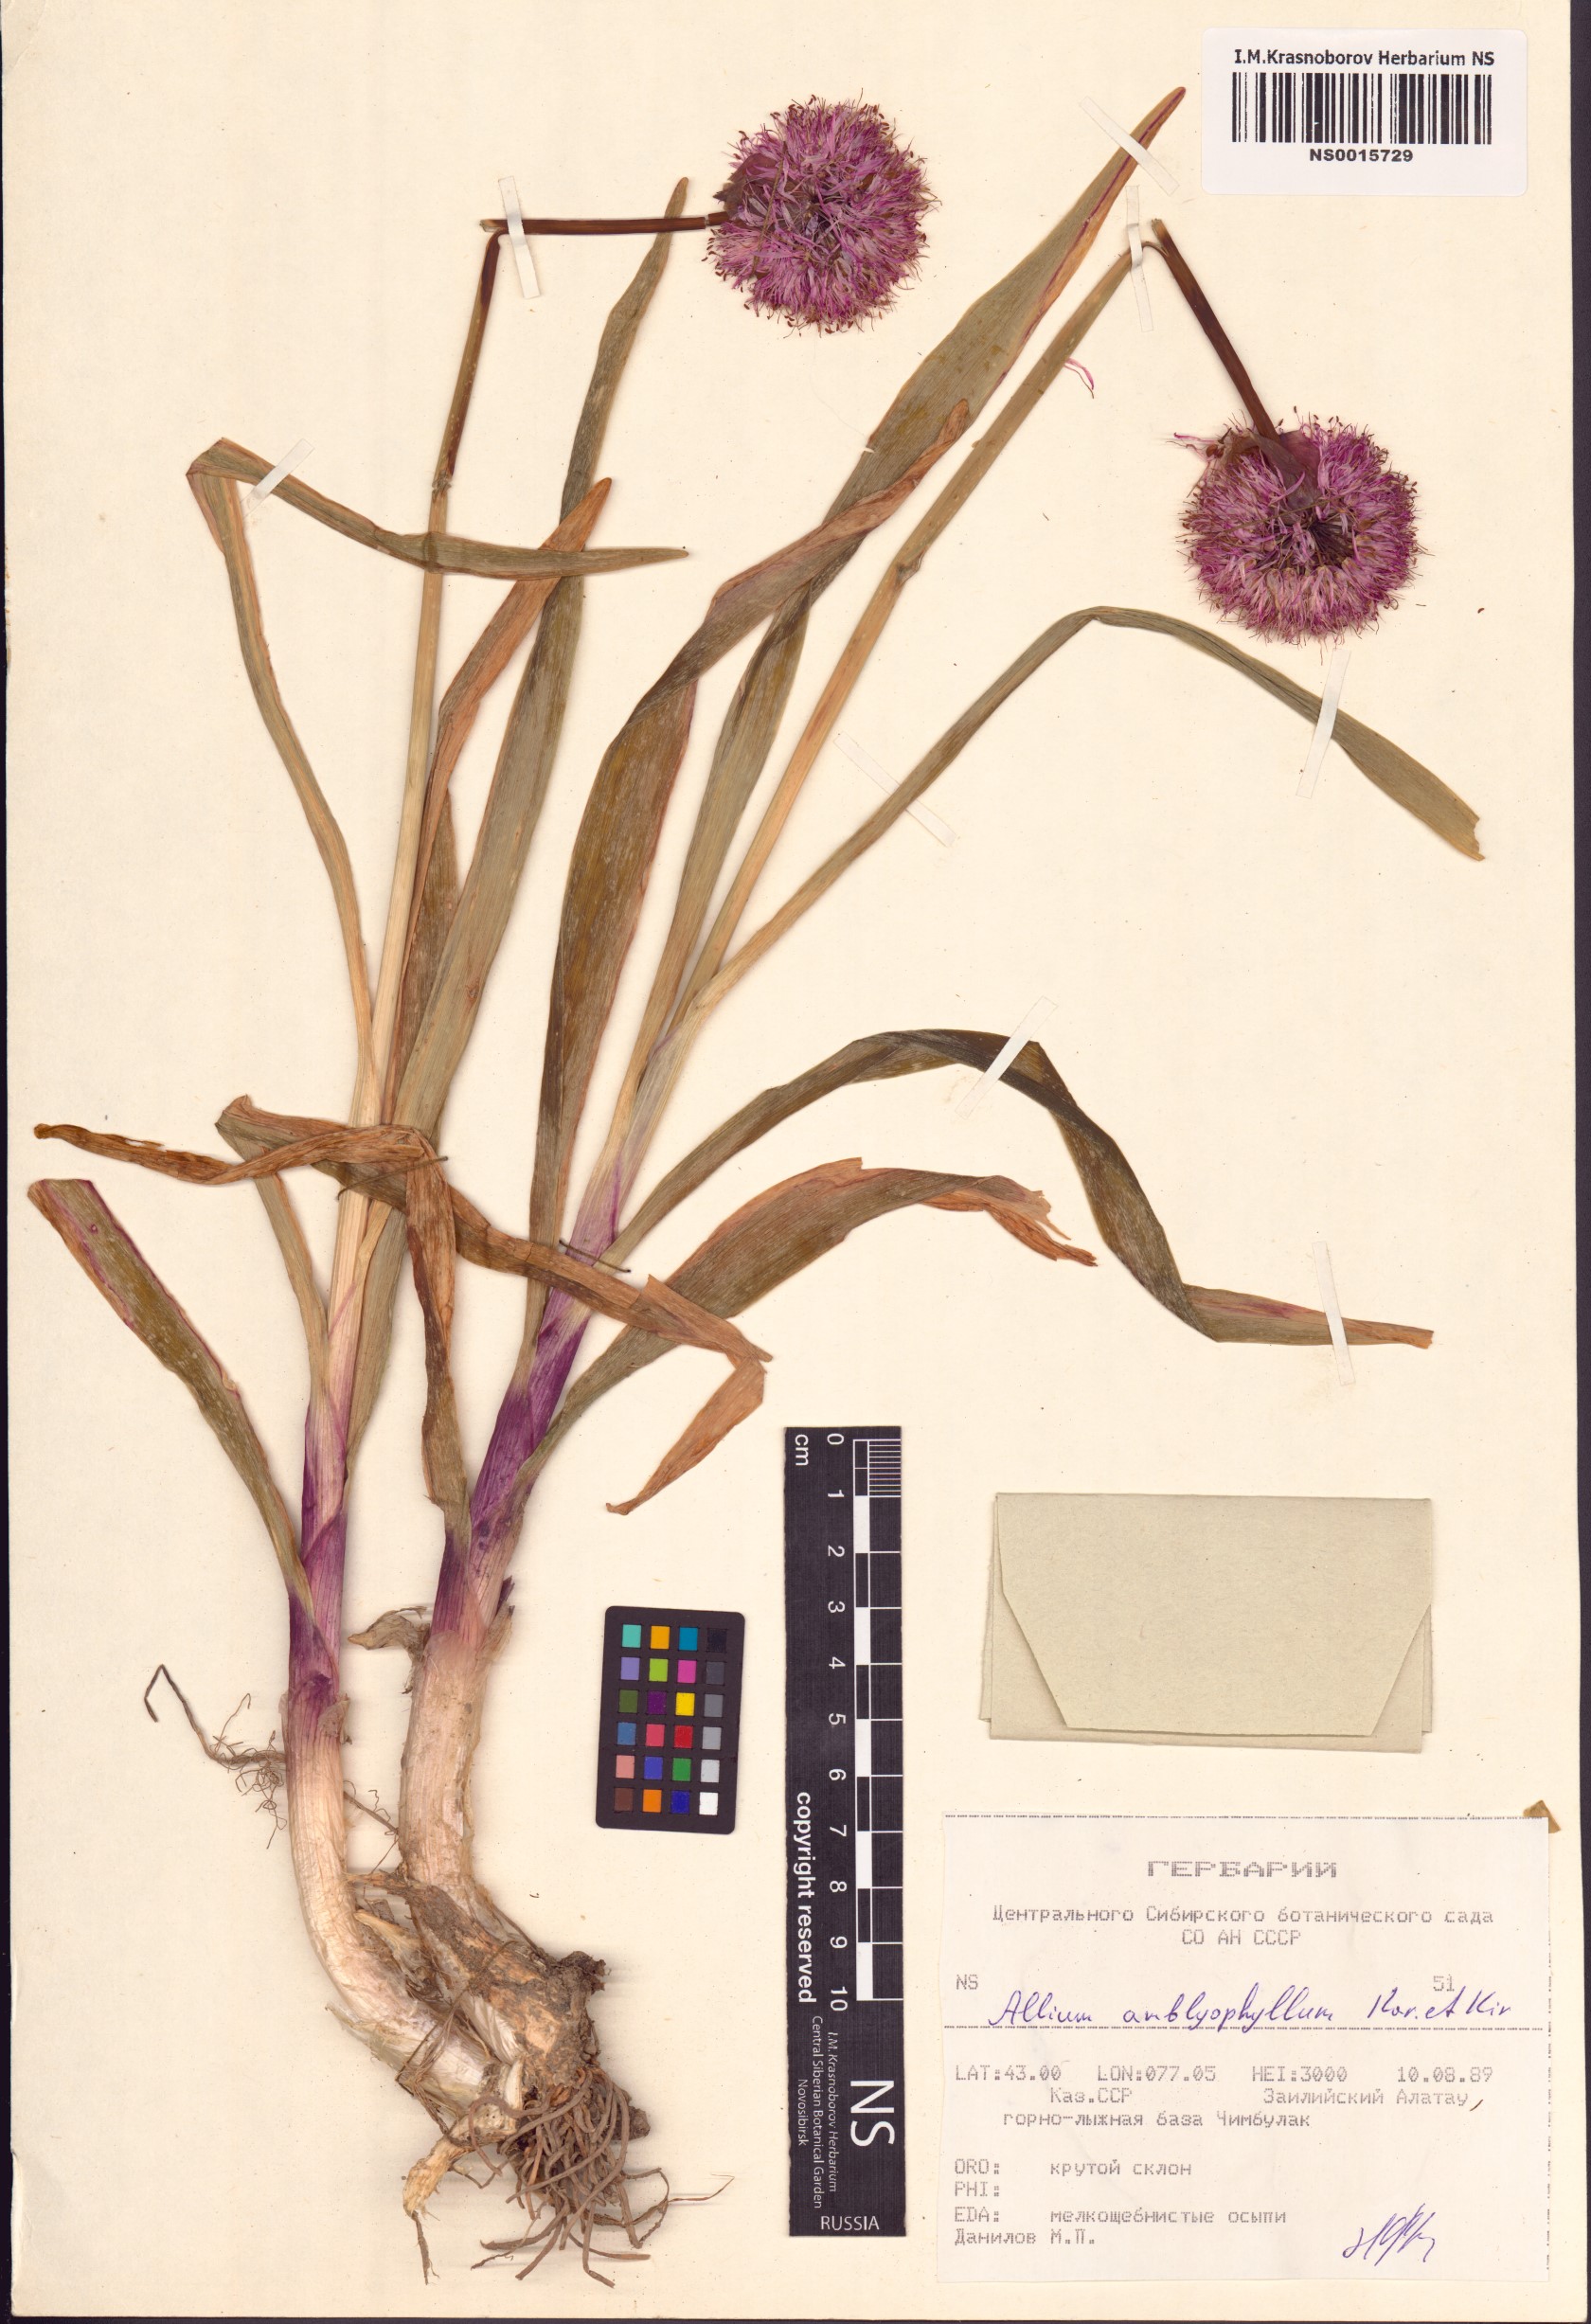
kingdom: Plantae
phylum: Tracheophyta
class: Liliopsida
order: Asparagales
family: Amaryllidaceae
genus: Allium
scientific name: Allium platyspathum
